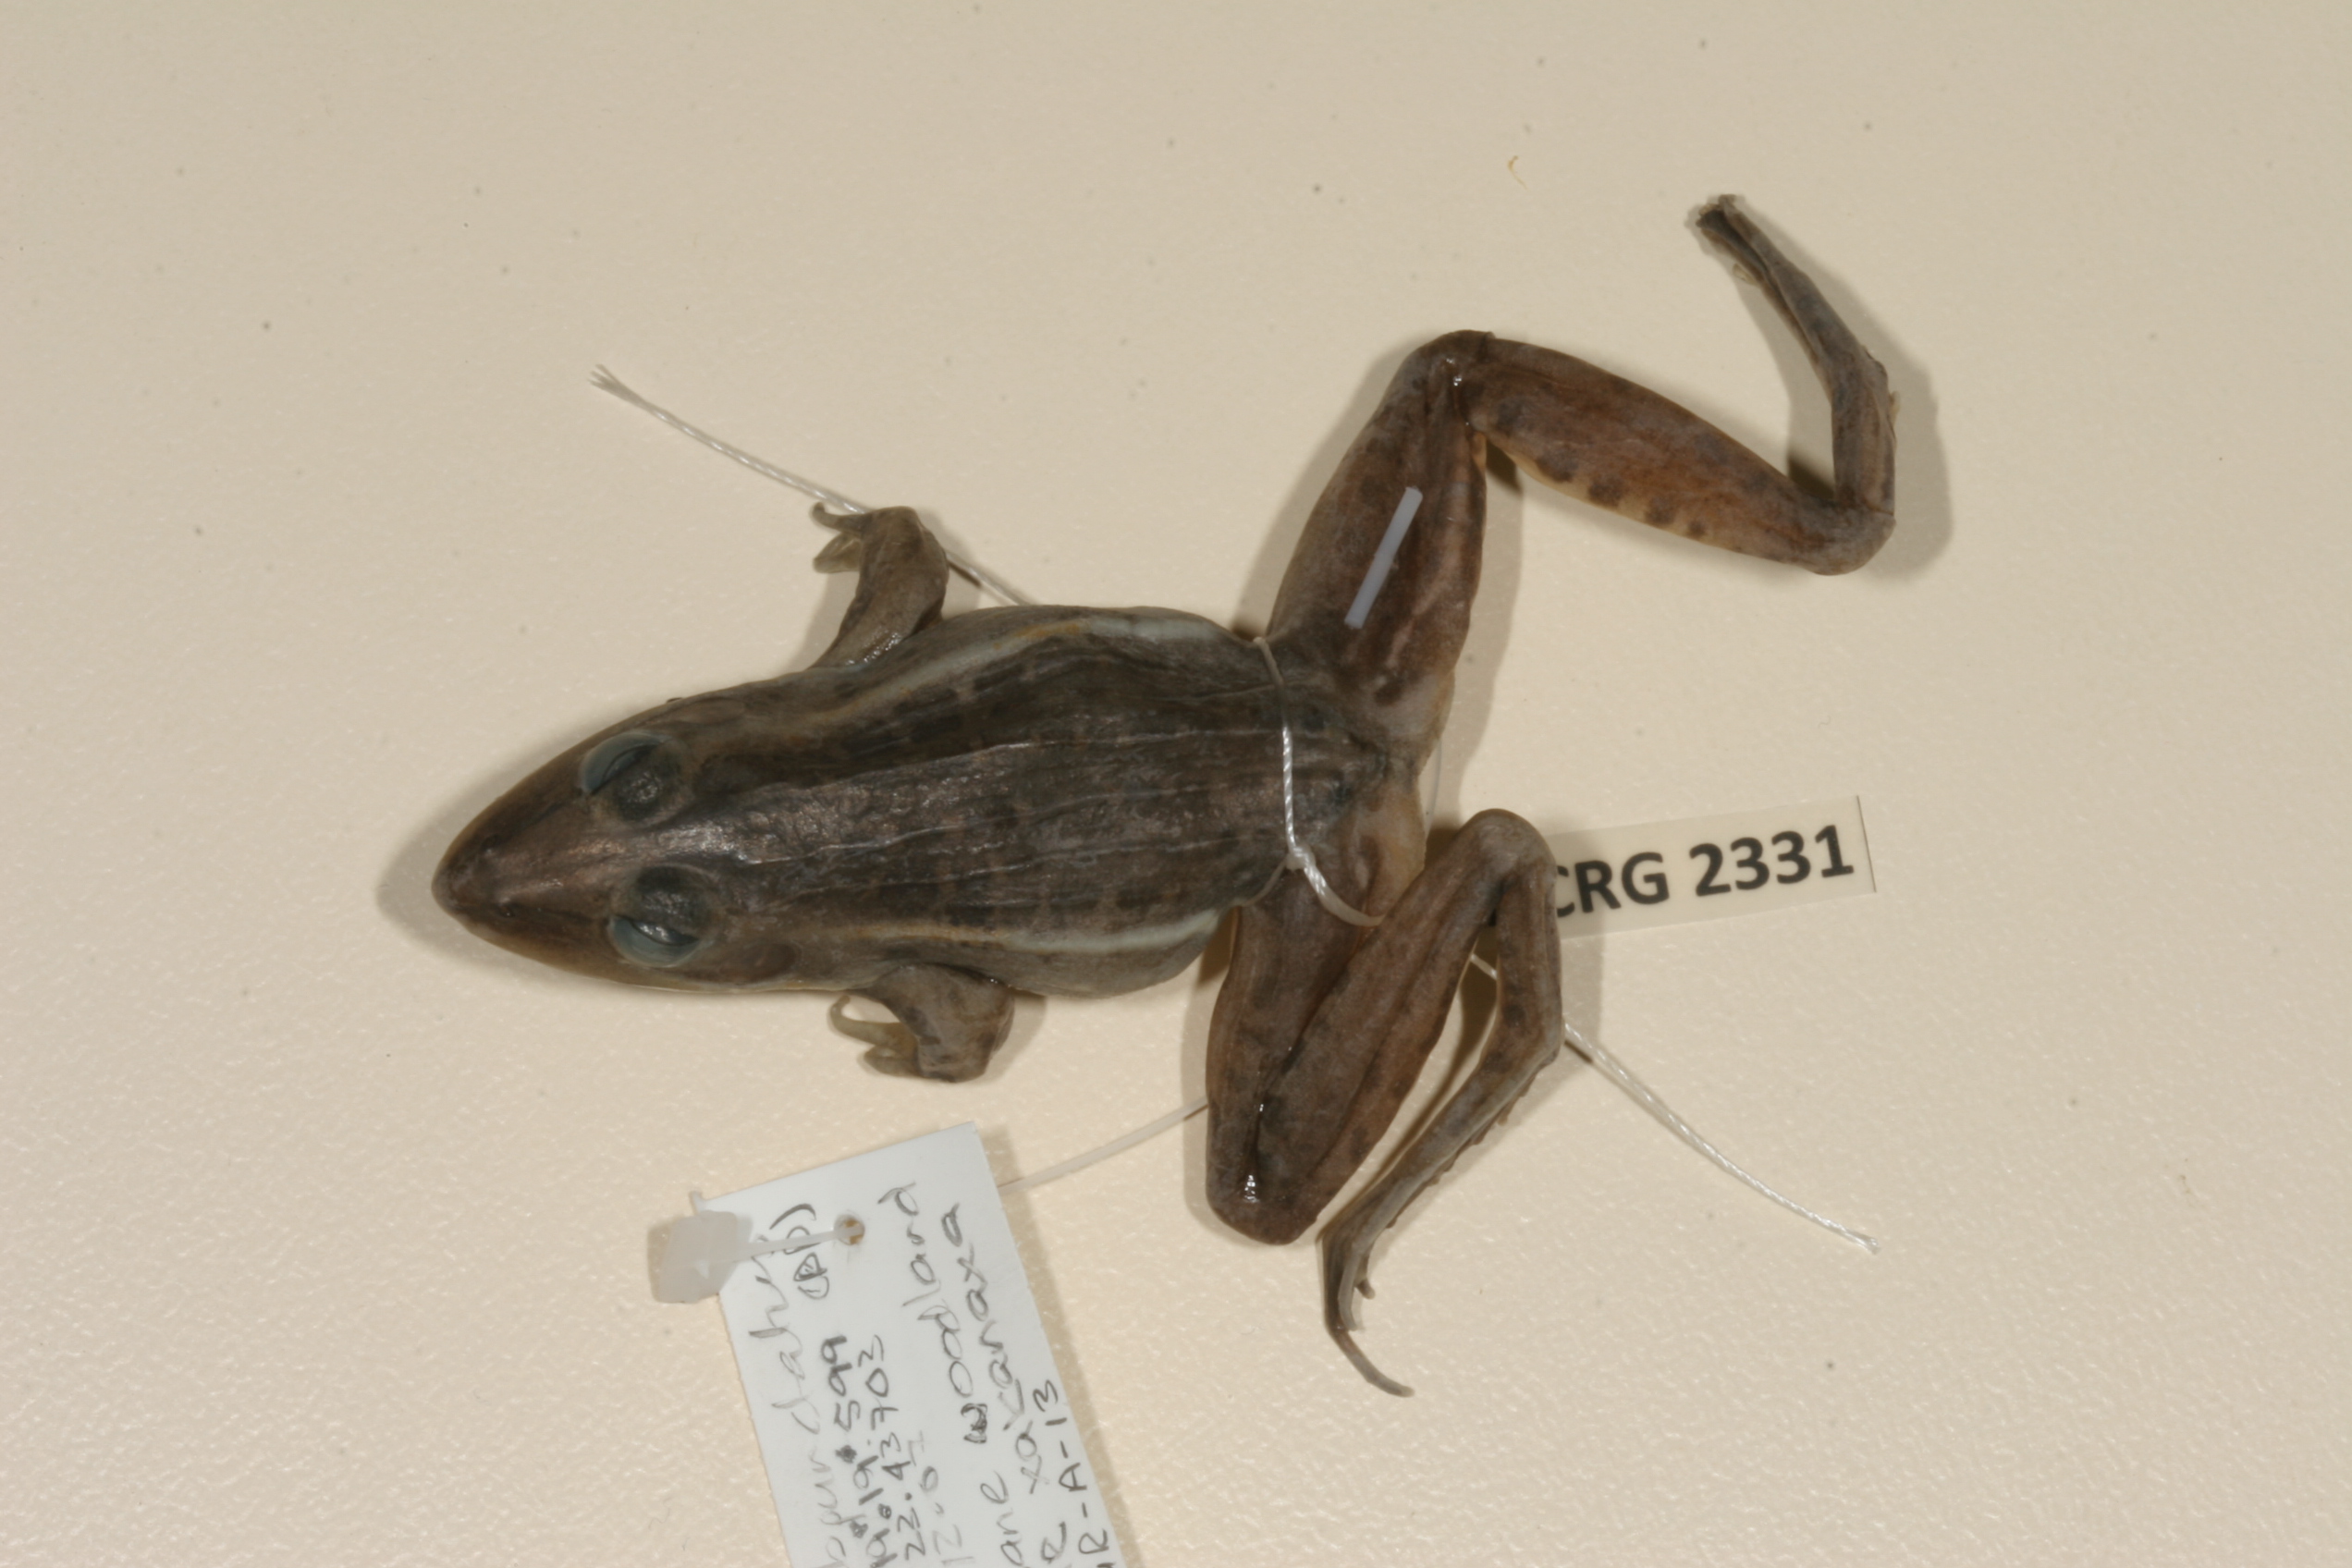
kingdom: Animalia
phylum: Chordata
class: Amphibia
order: Anura
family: Ptychadenidae
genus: Ptychadena
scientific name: Ptychadena subpunctata
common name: Bocage's grassland frog
